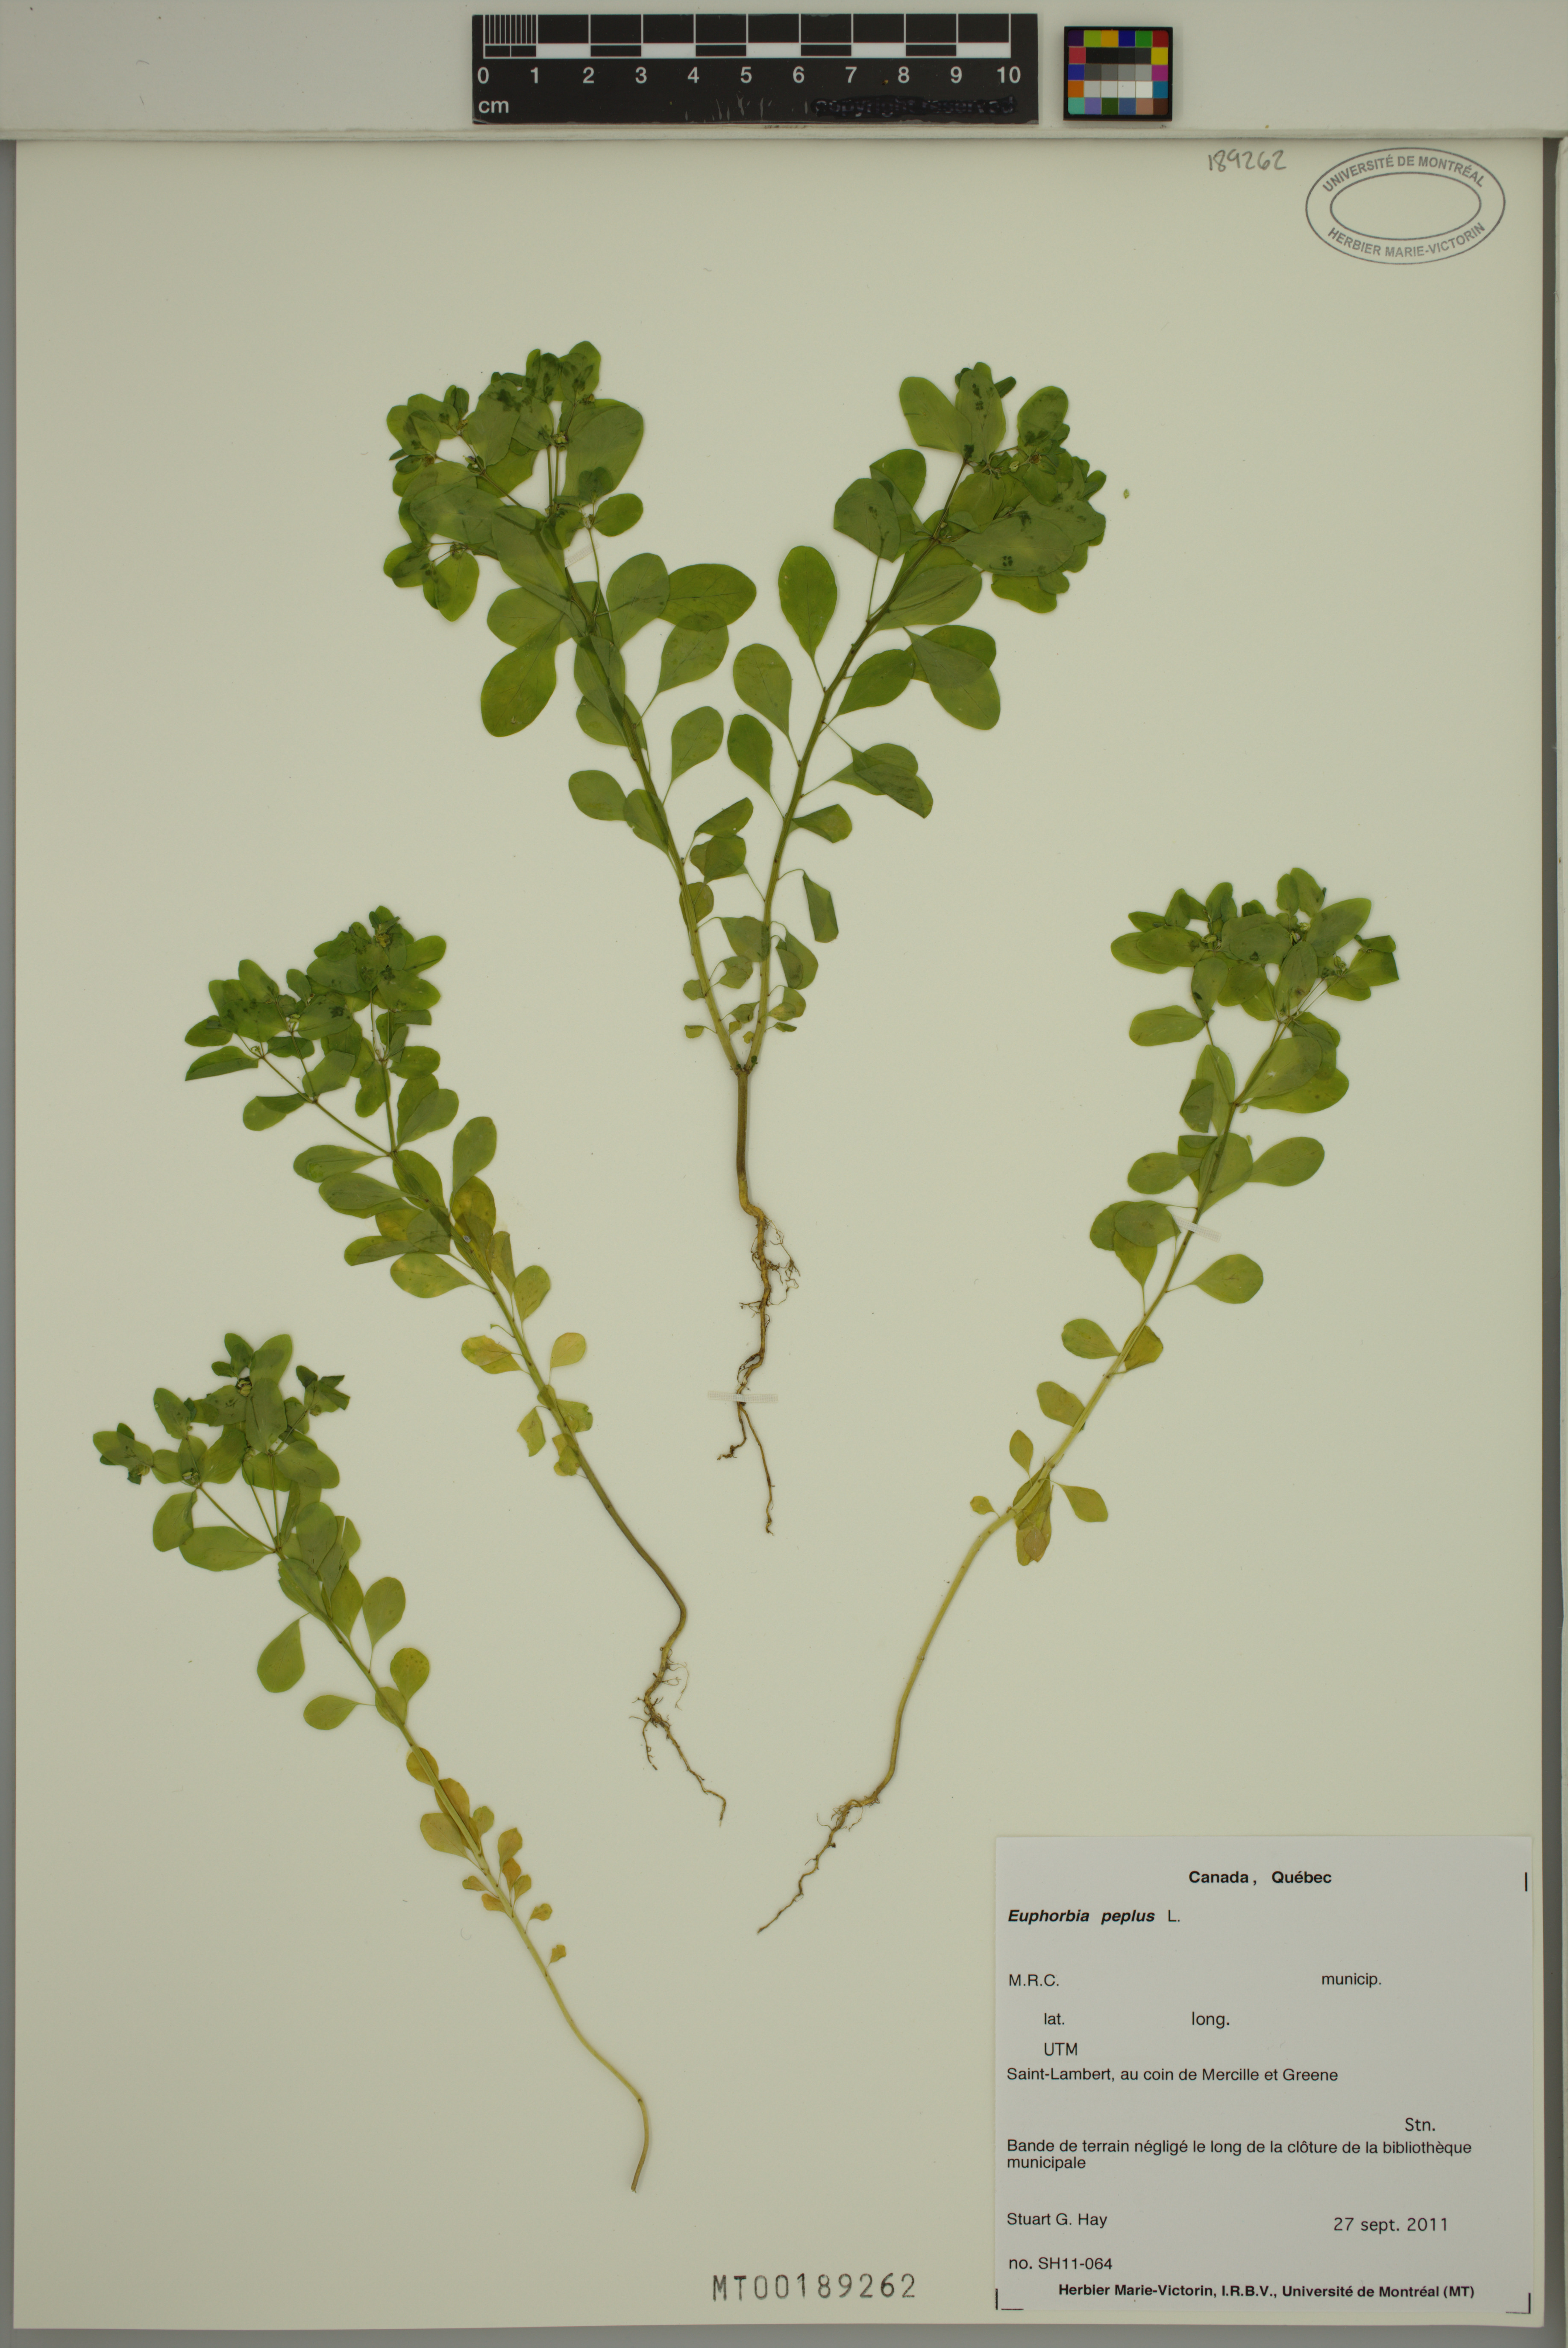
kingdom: Plantae
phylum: Tracheophyta
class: Magnoliopsida
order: Malpighiales
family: Euphorbiaceae
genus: Euphorbia
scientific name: Euphorbia peplus
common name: Petty spurge
